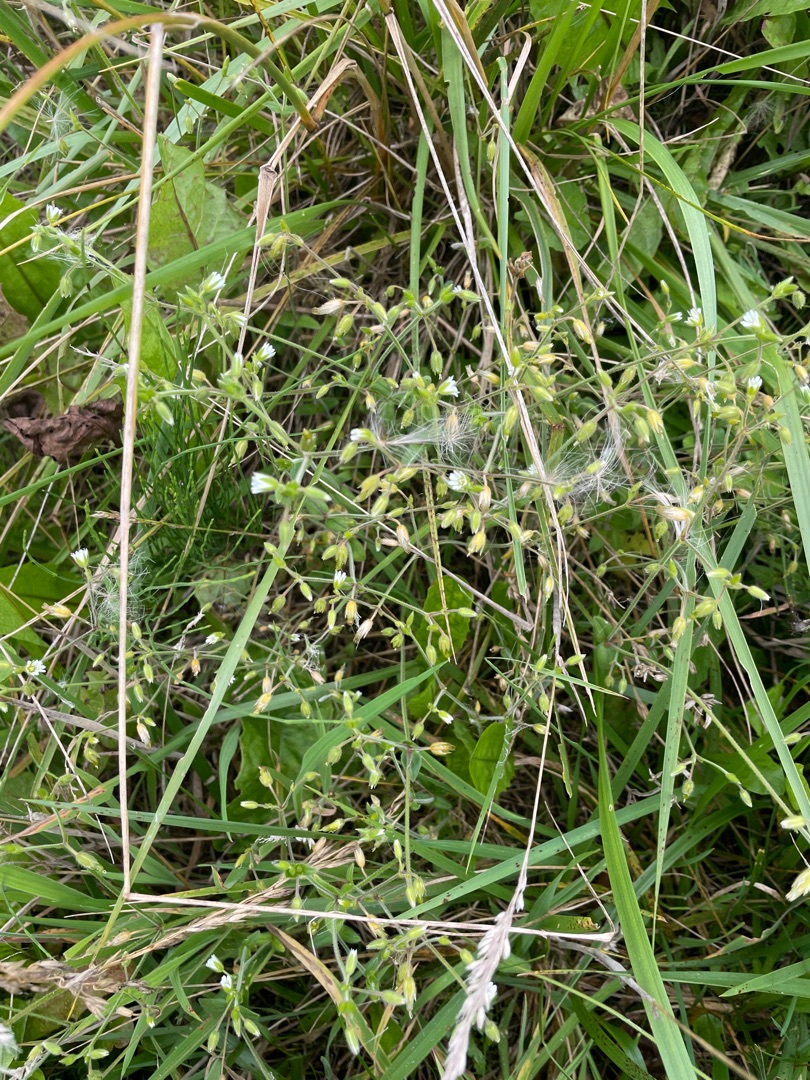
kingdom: Plantae
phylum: Tracheophyta
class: Magnoliopsida
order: Caryophyllales
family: Caryophyllaceae
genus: Cerastium
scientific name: Cerastium fontanum
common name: Almindelig hønsetarm
